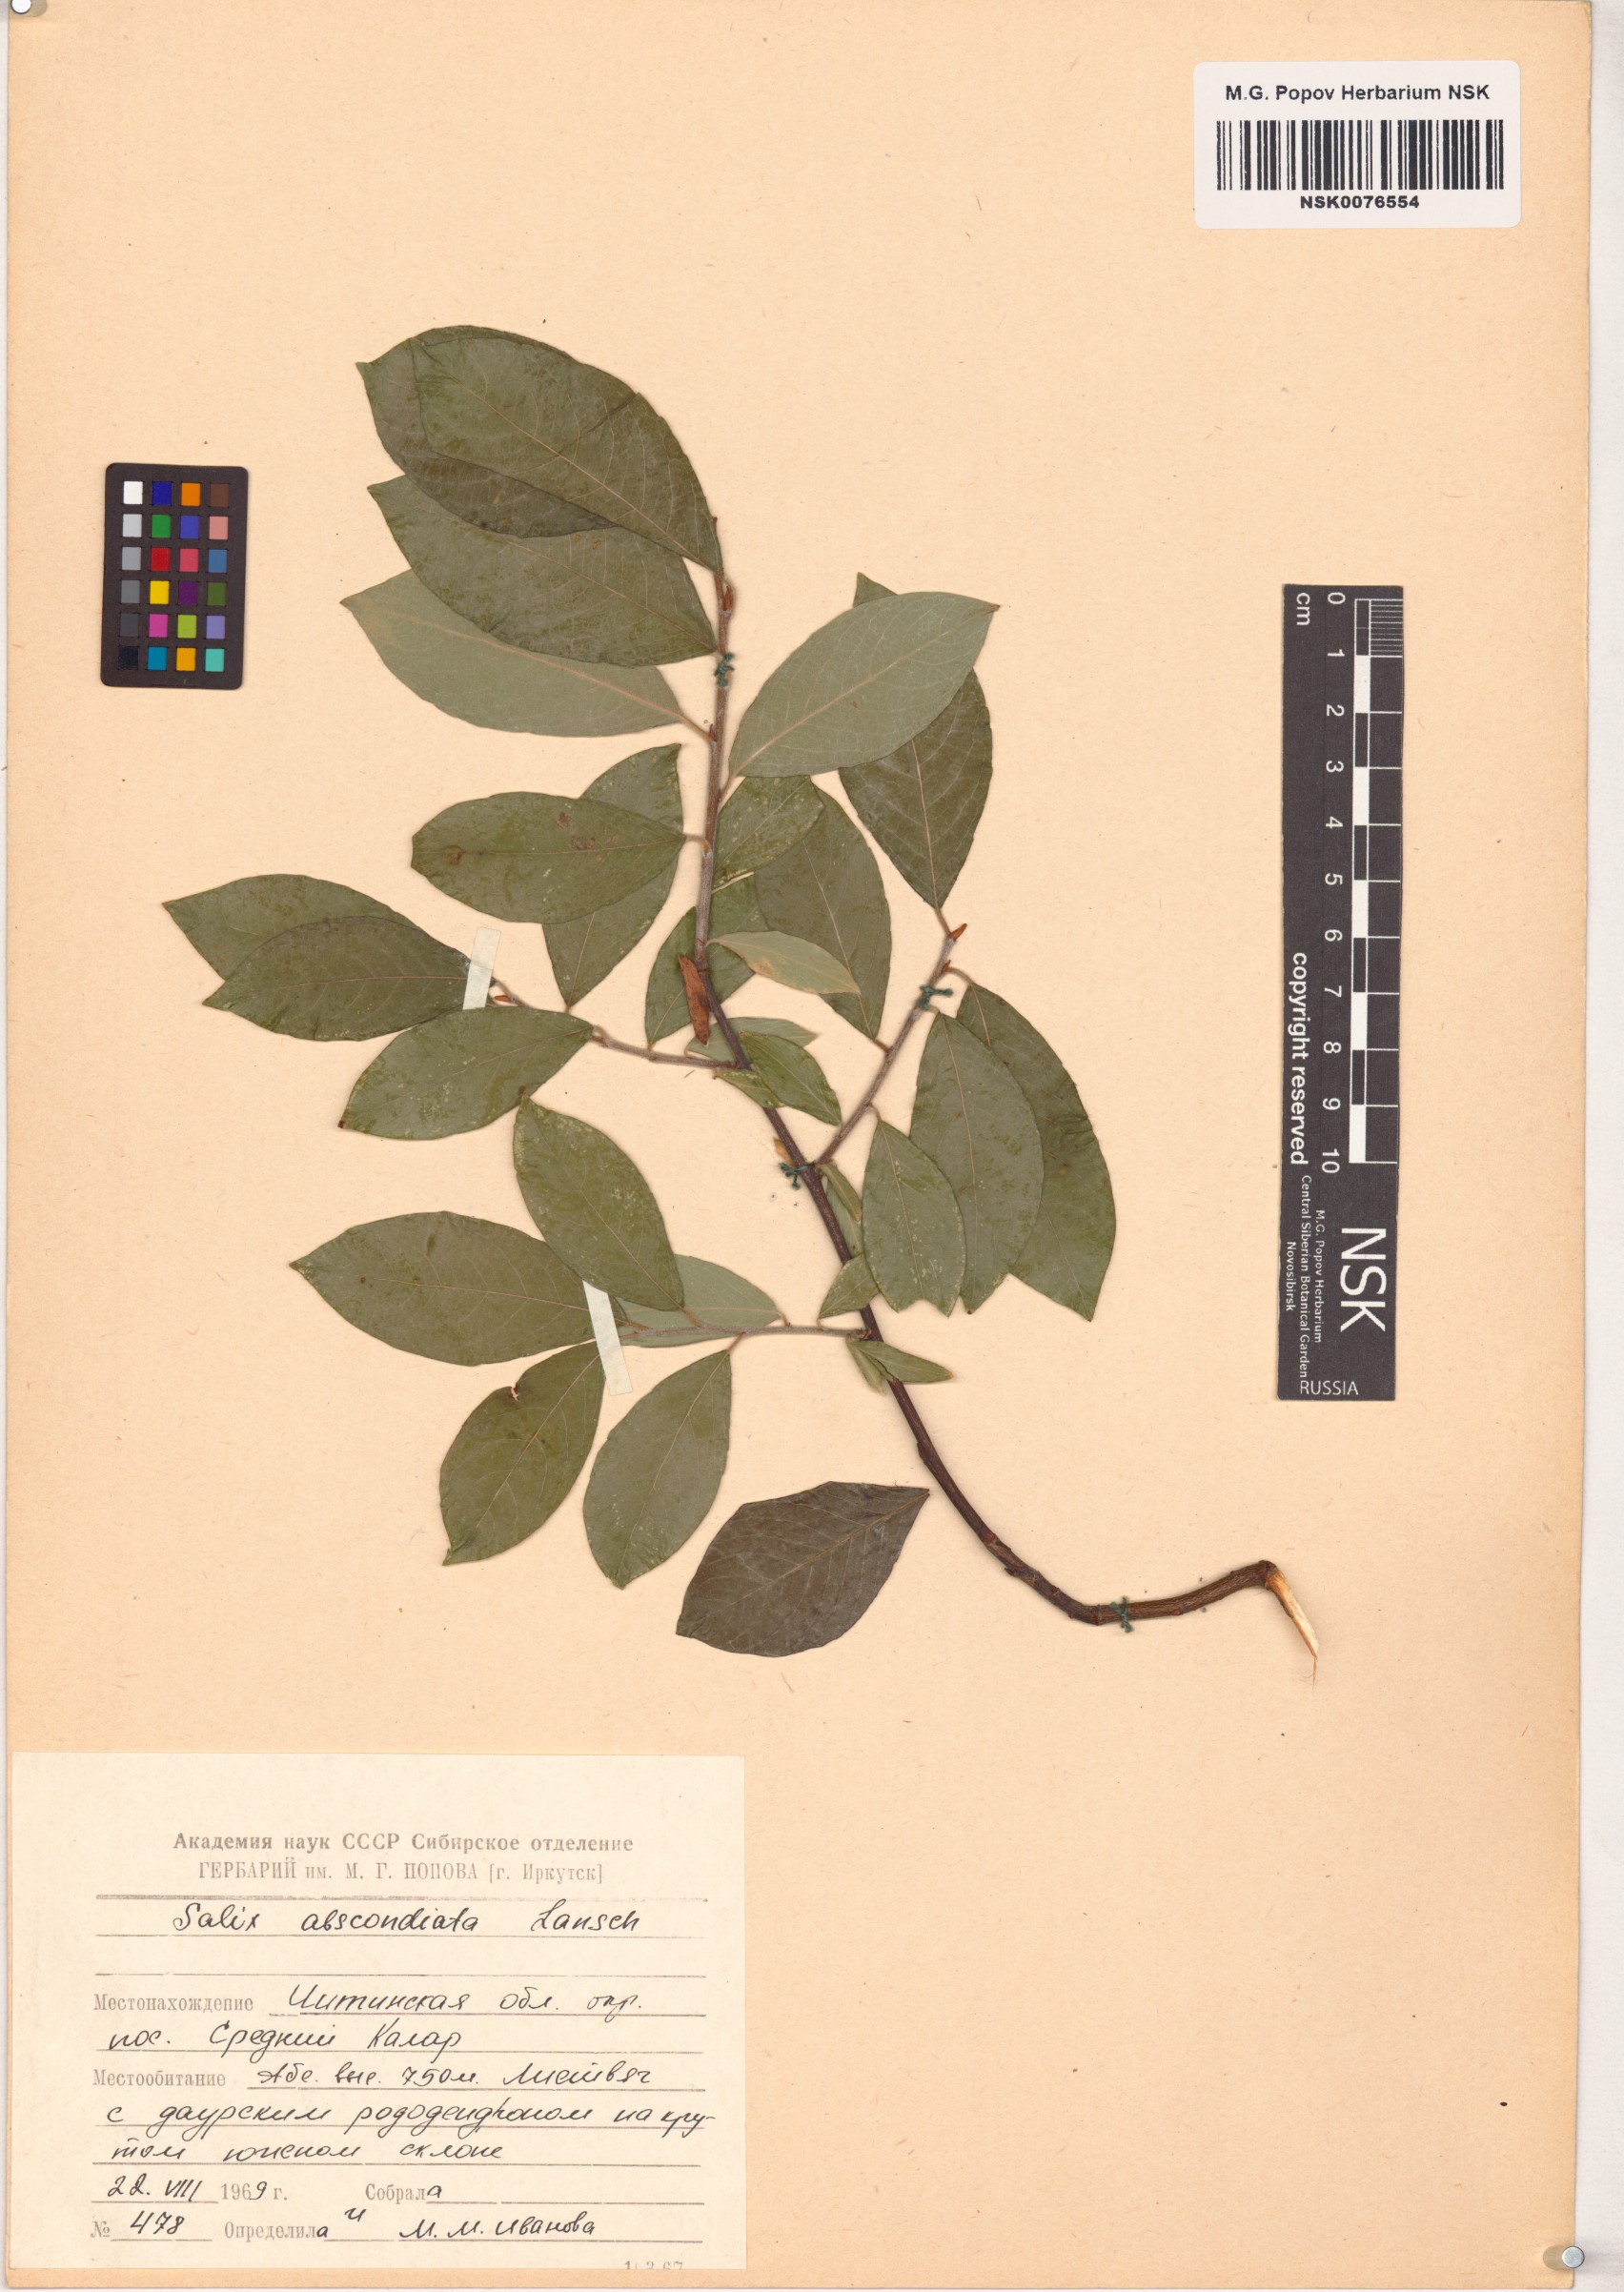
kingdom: Plantae
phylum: Tracheophyta
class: Magnoliopsida
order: Malpighiales
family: Salicaceae
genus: Salix
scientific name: Salix abscondita
